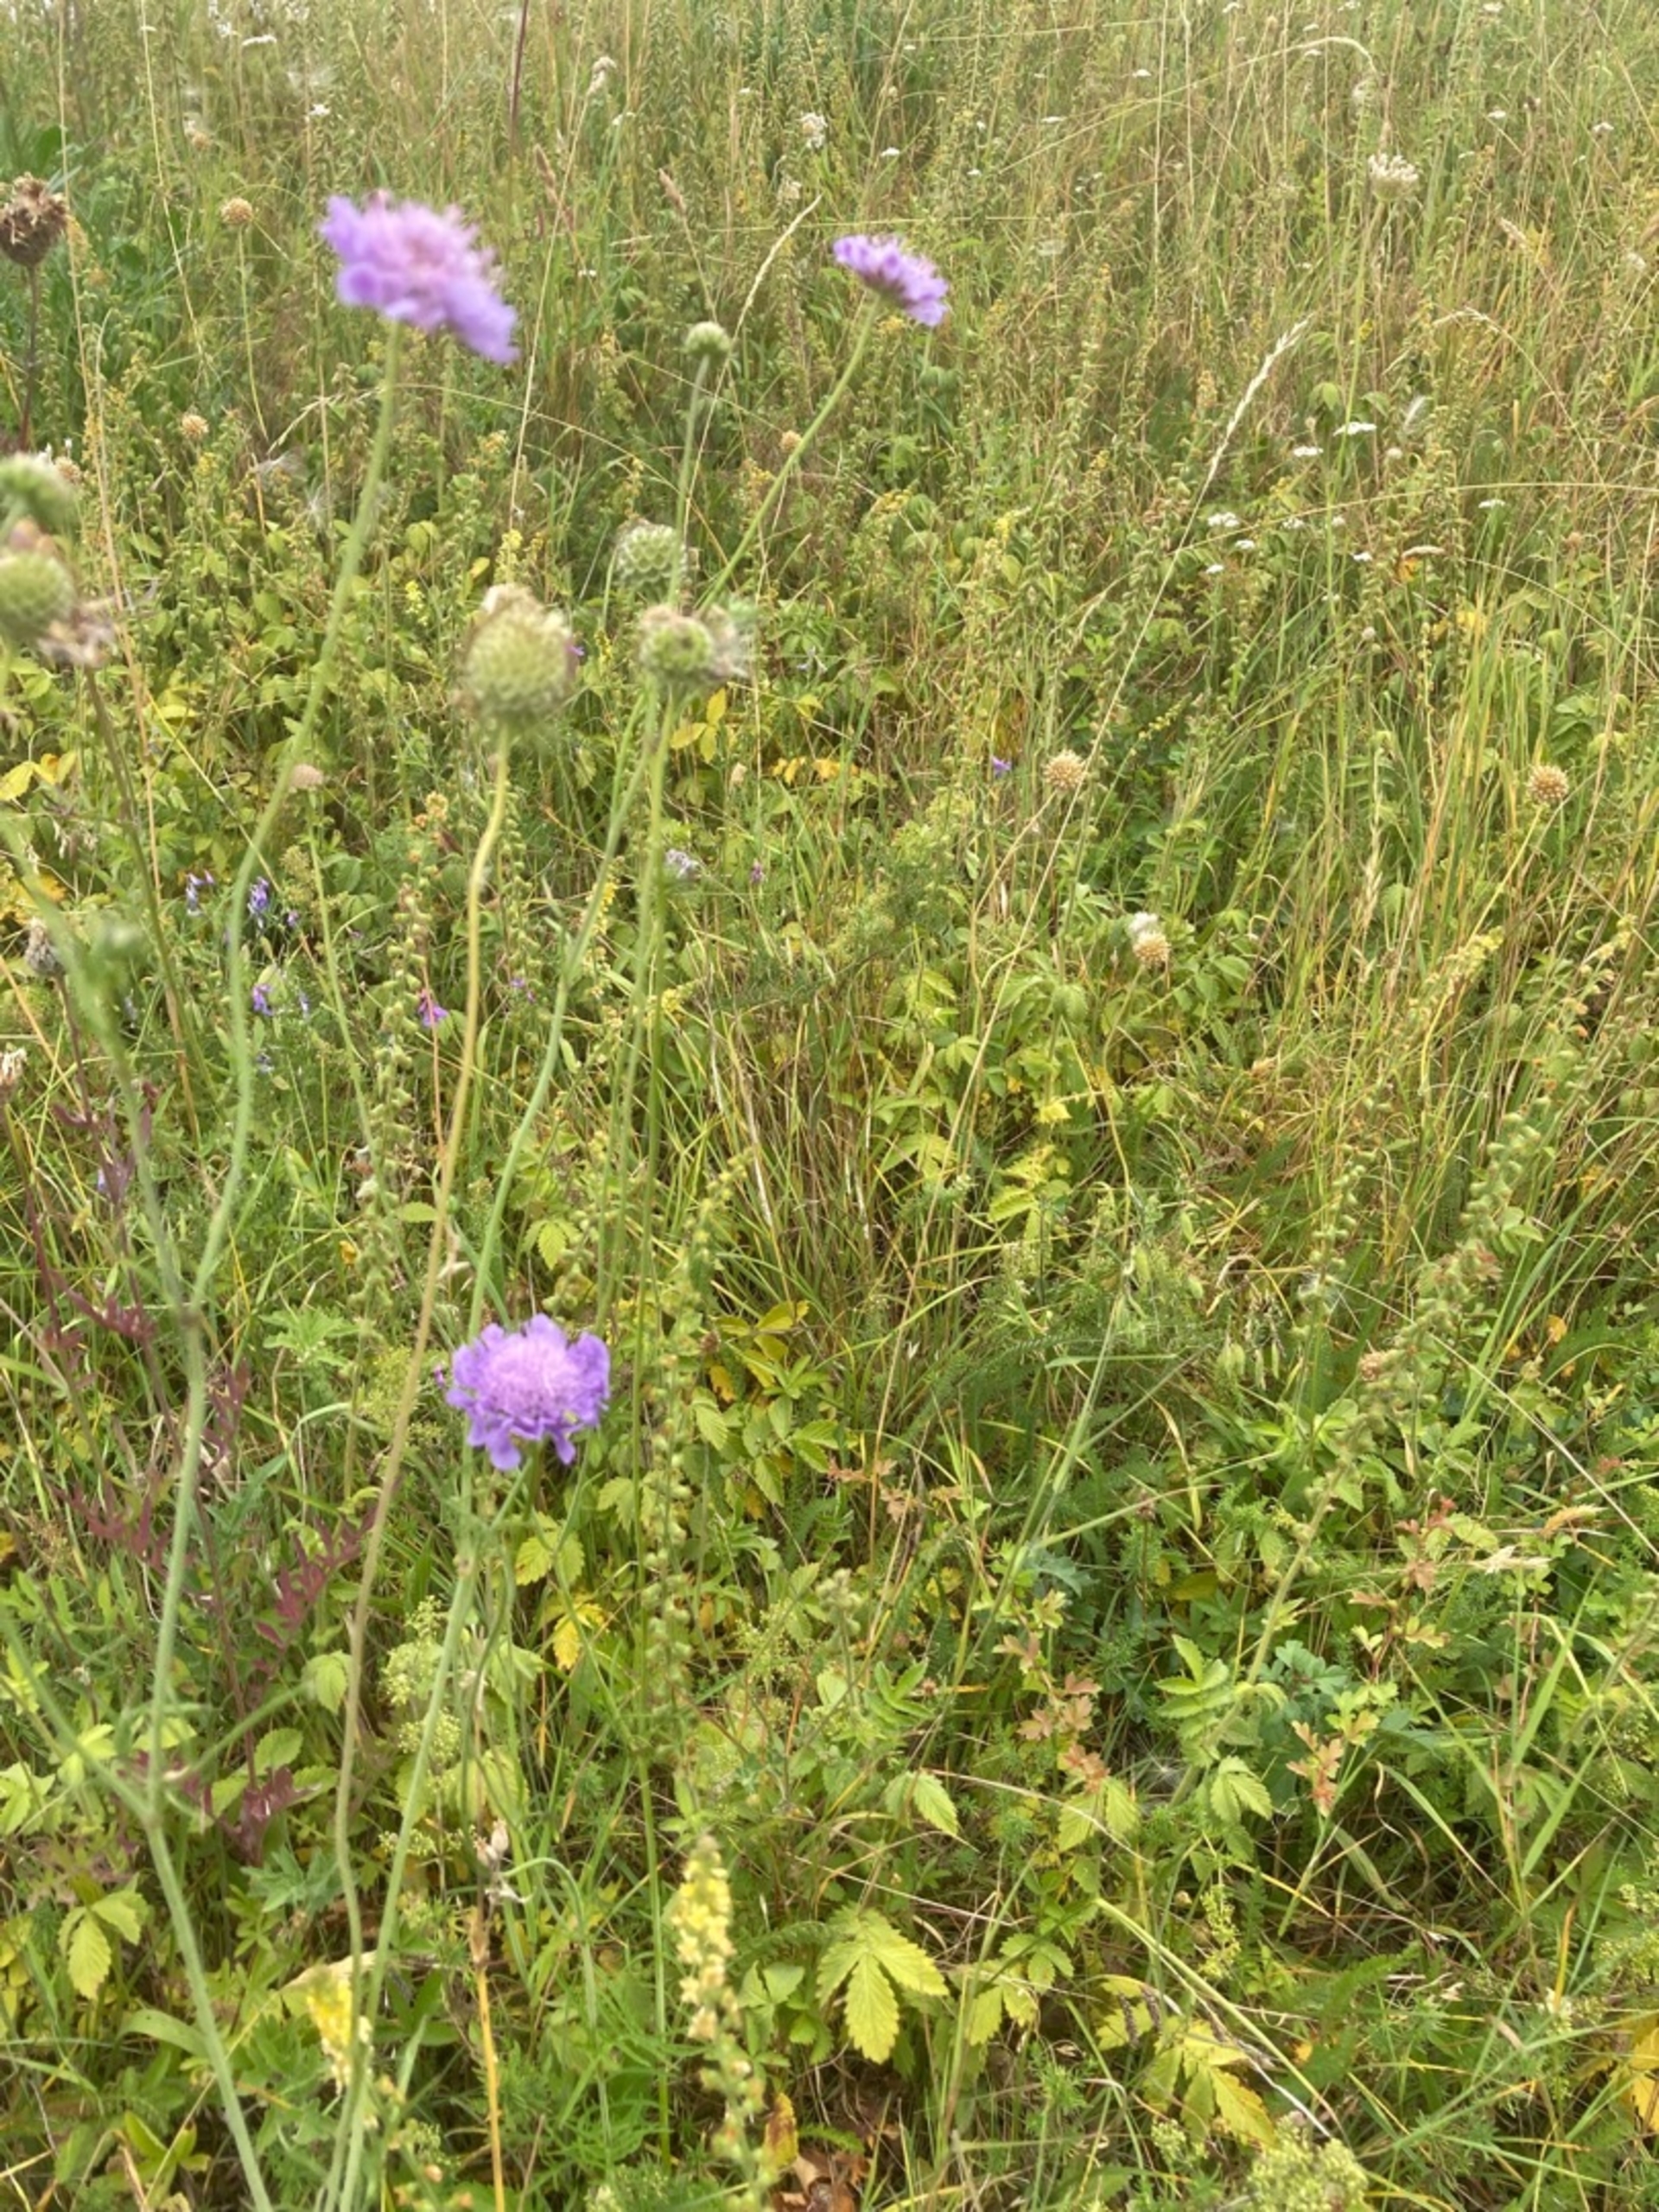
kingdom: Plantae
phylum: Tracheophyta
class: Magnoliopsida
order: Dipsacales
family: Caprifoliaceae
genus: Scabiosa
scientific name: Scabiosa columbaria
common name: Due-skabiose
